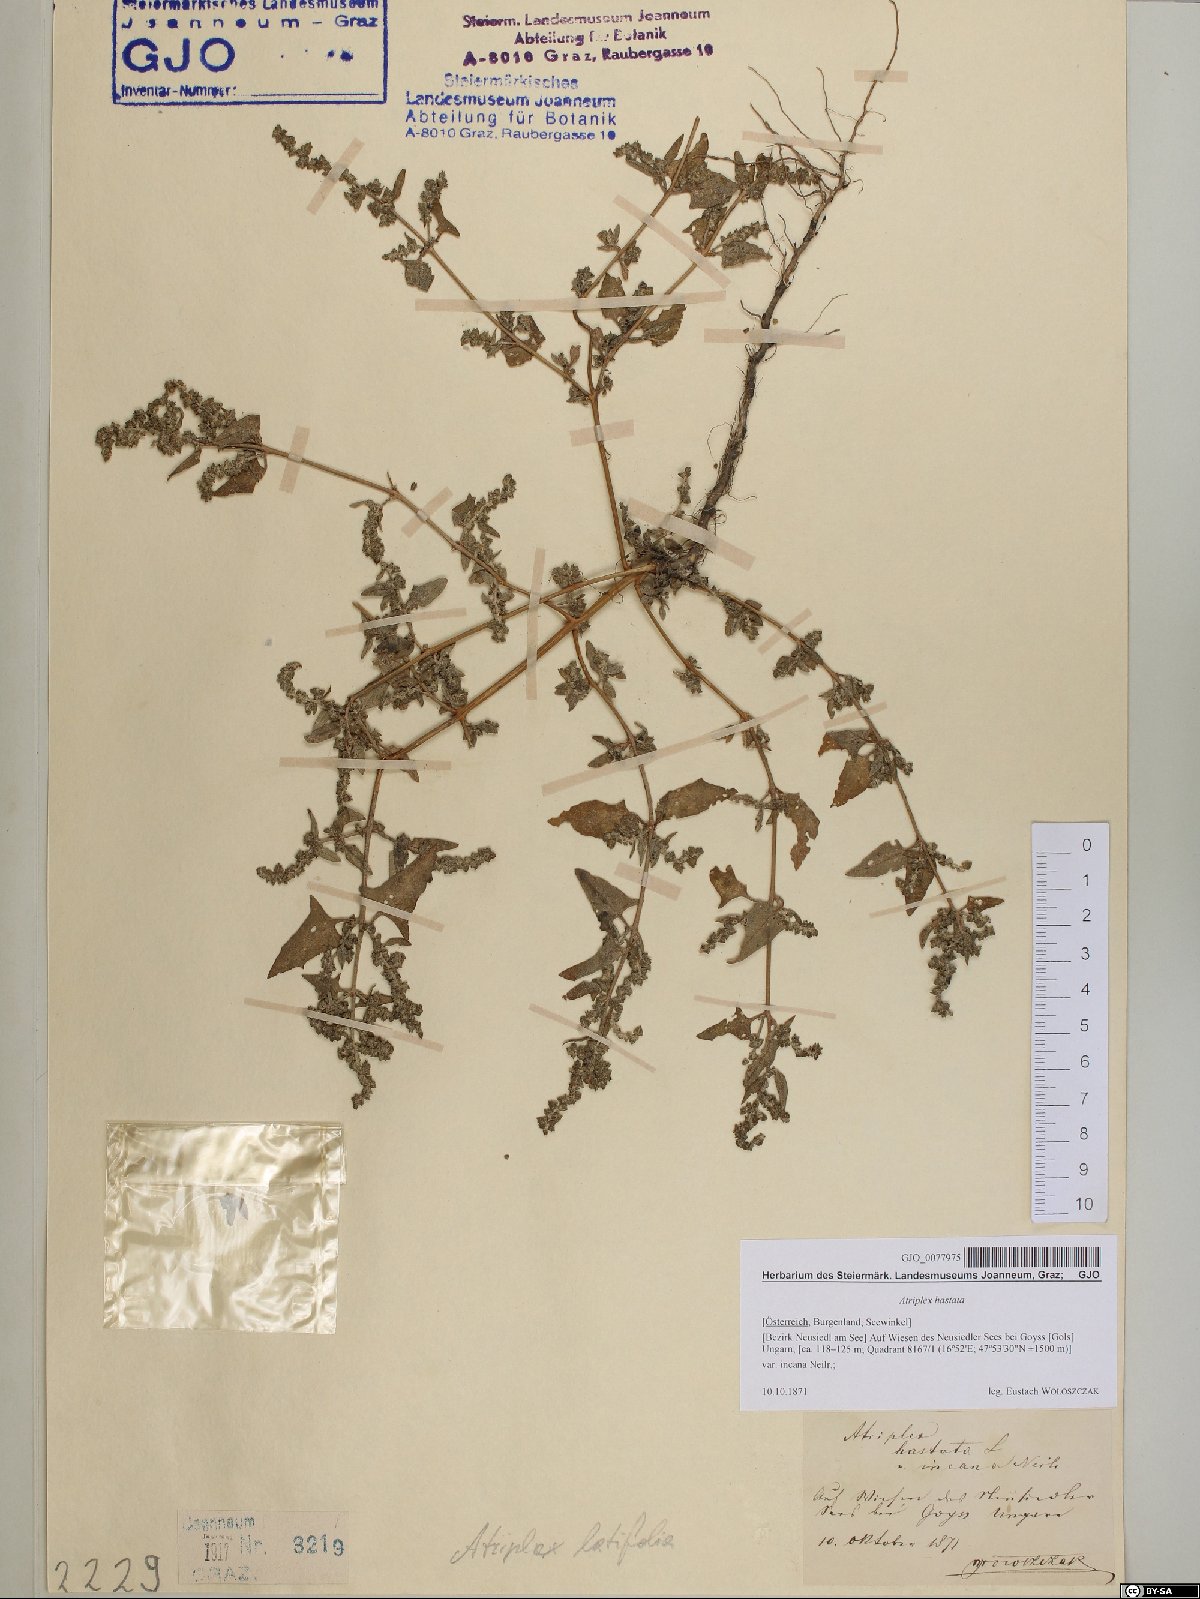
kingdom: Plantae
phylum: Tracheophyta
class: Magnoliopsida
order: Caryophyllales
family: Amaranthaceae
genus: Atriplex
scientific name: Atriplex calotheca
